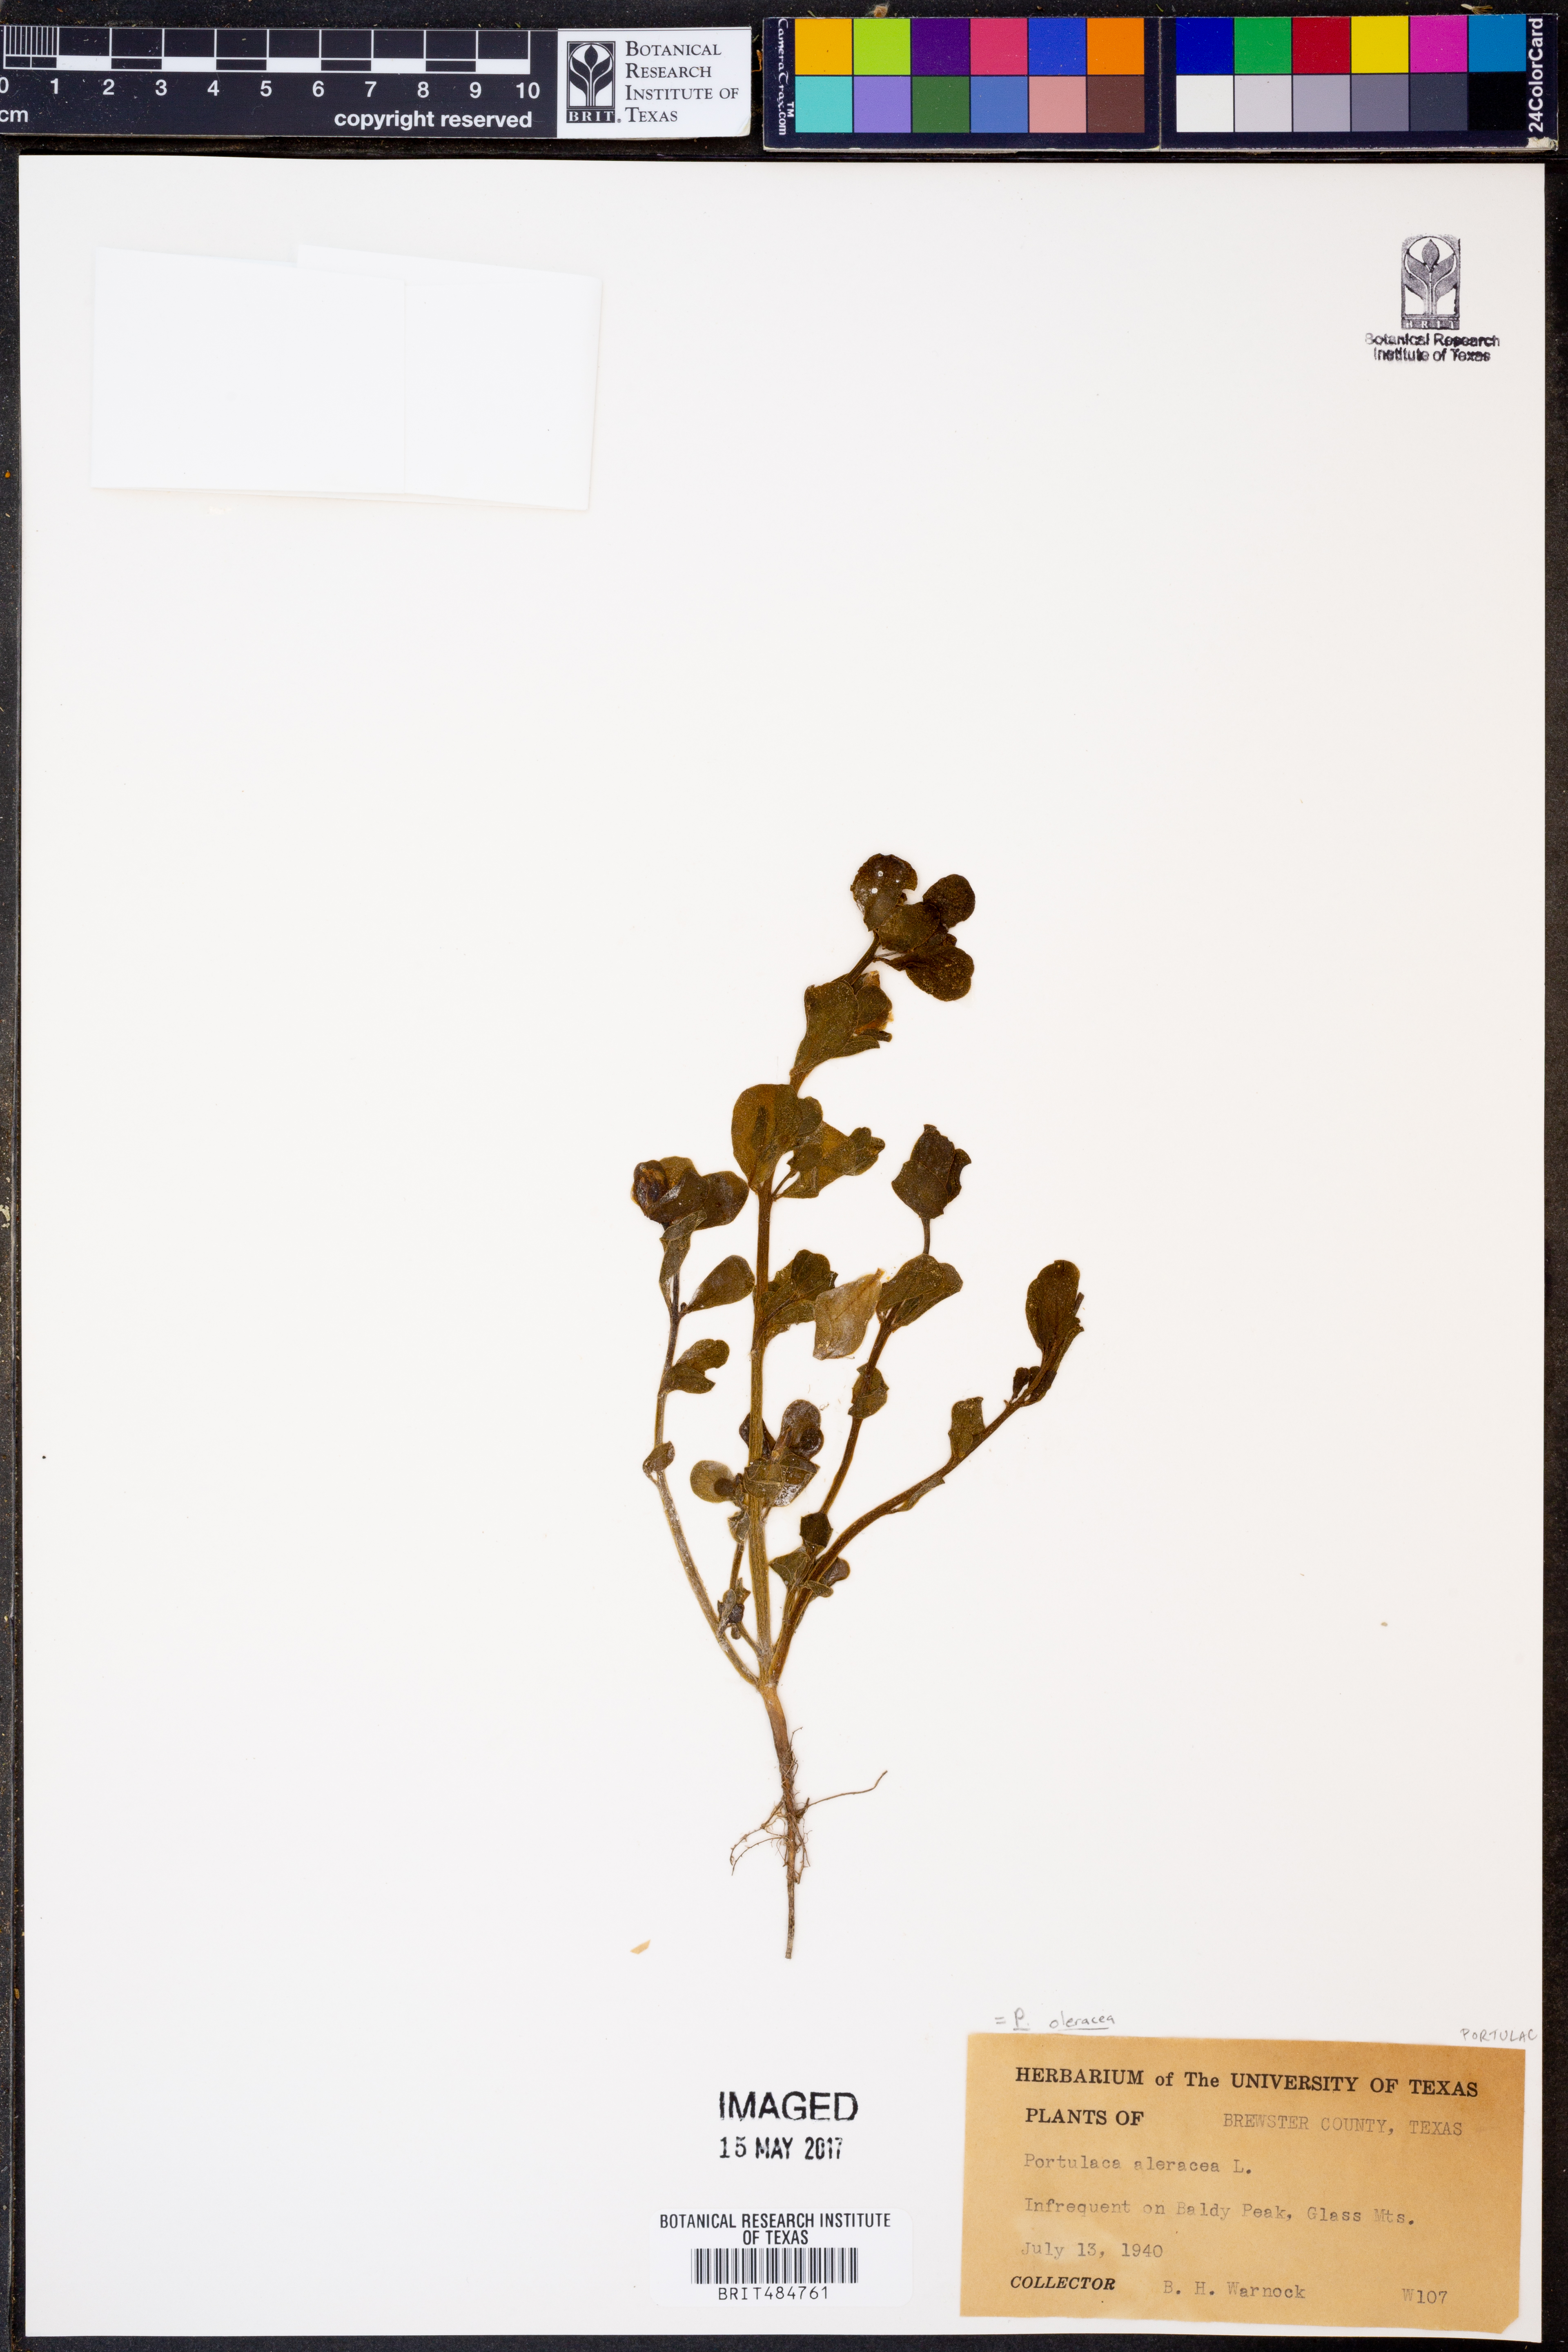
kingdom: Plantae
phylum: Tracheophyta
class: Magnoliopsida
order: Caryophyllales
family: Portulacaceae
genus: Portulaca
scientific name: Portulaca oleracea
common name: Common purslane
